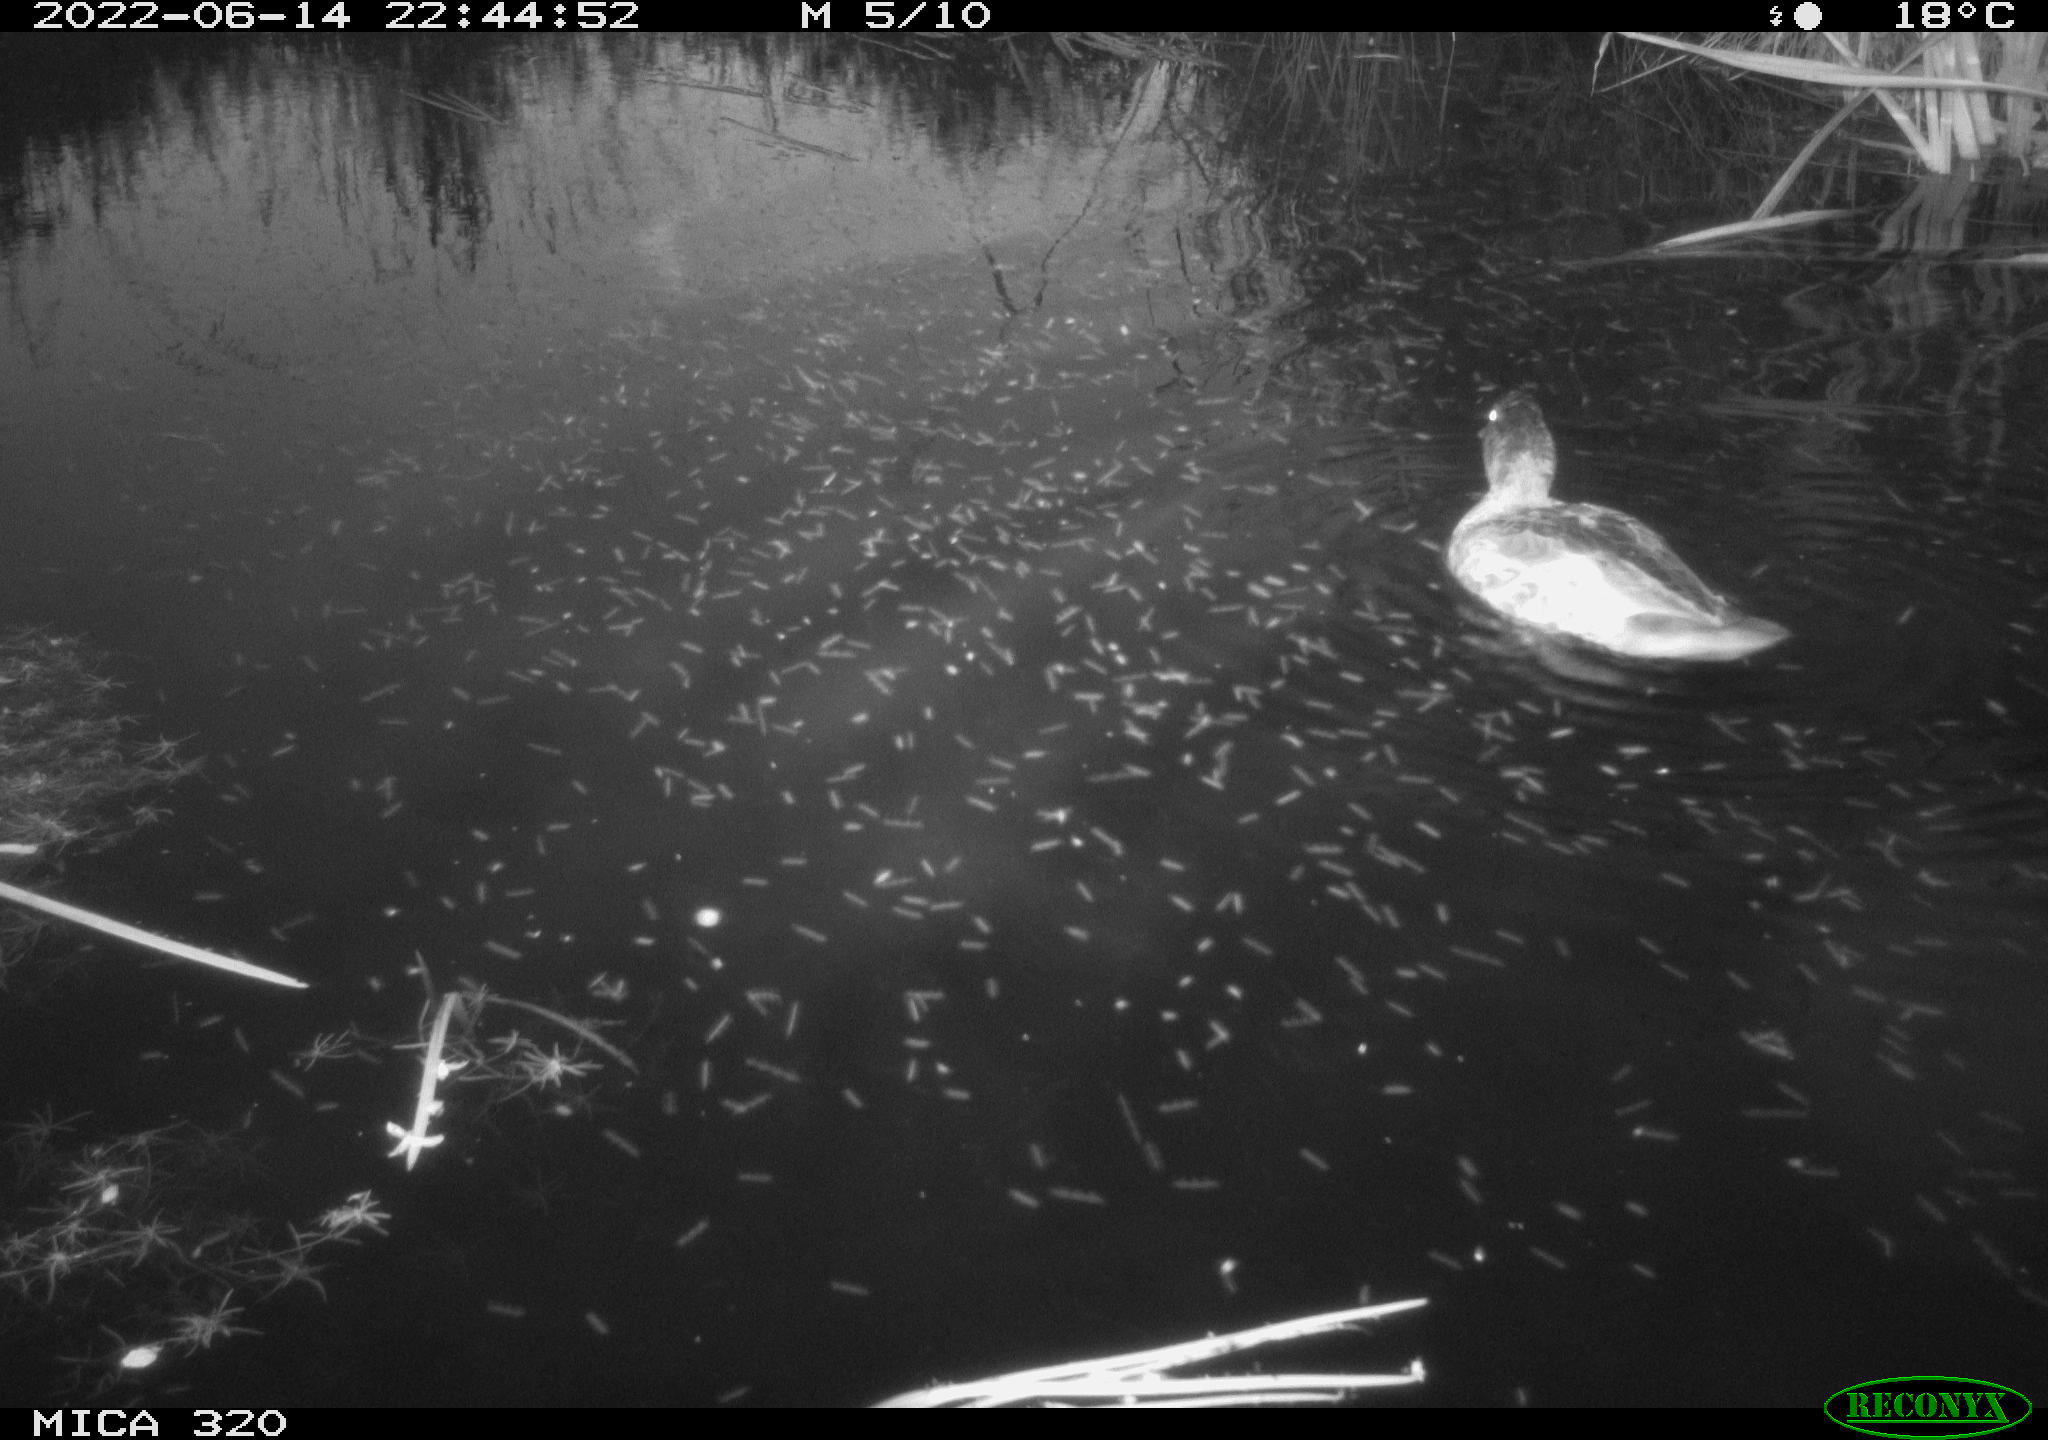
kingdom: Animalia
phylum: Chordata
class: Aves
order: Anseriformes
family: Anatidae
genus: Anas
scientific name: Anas platyrhynchos
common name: Mallard
